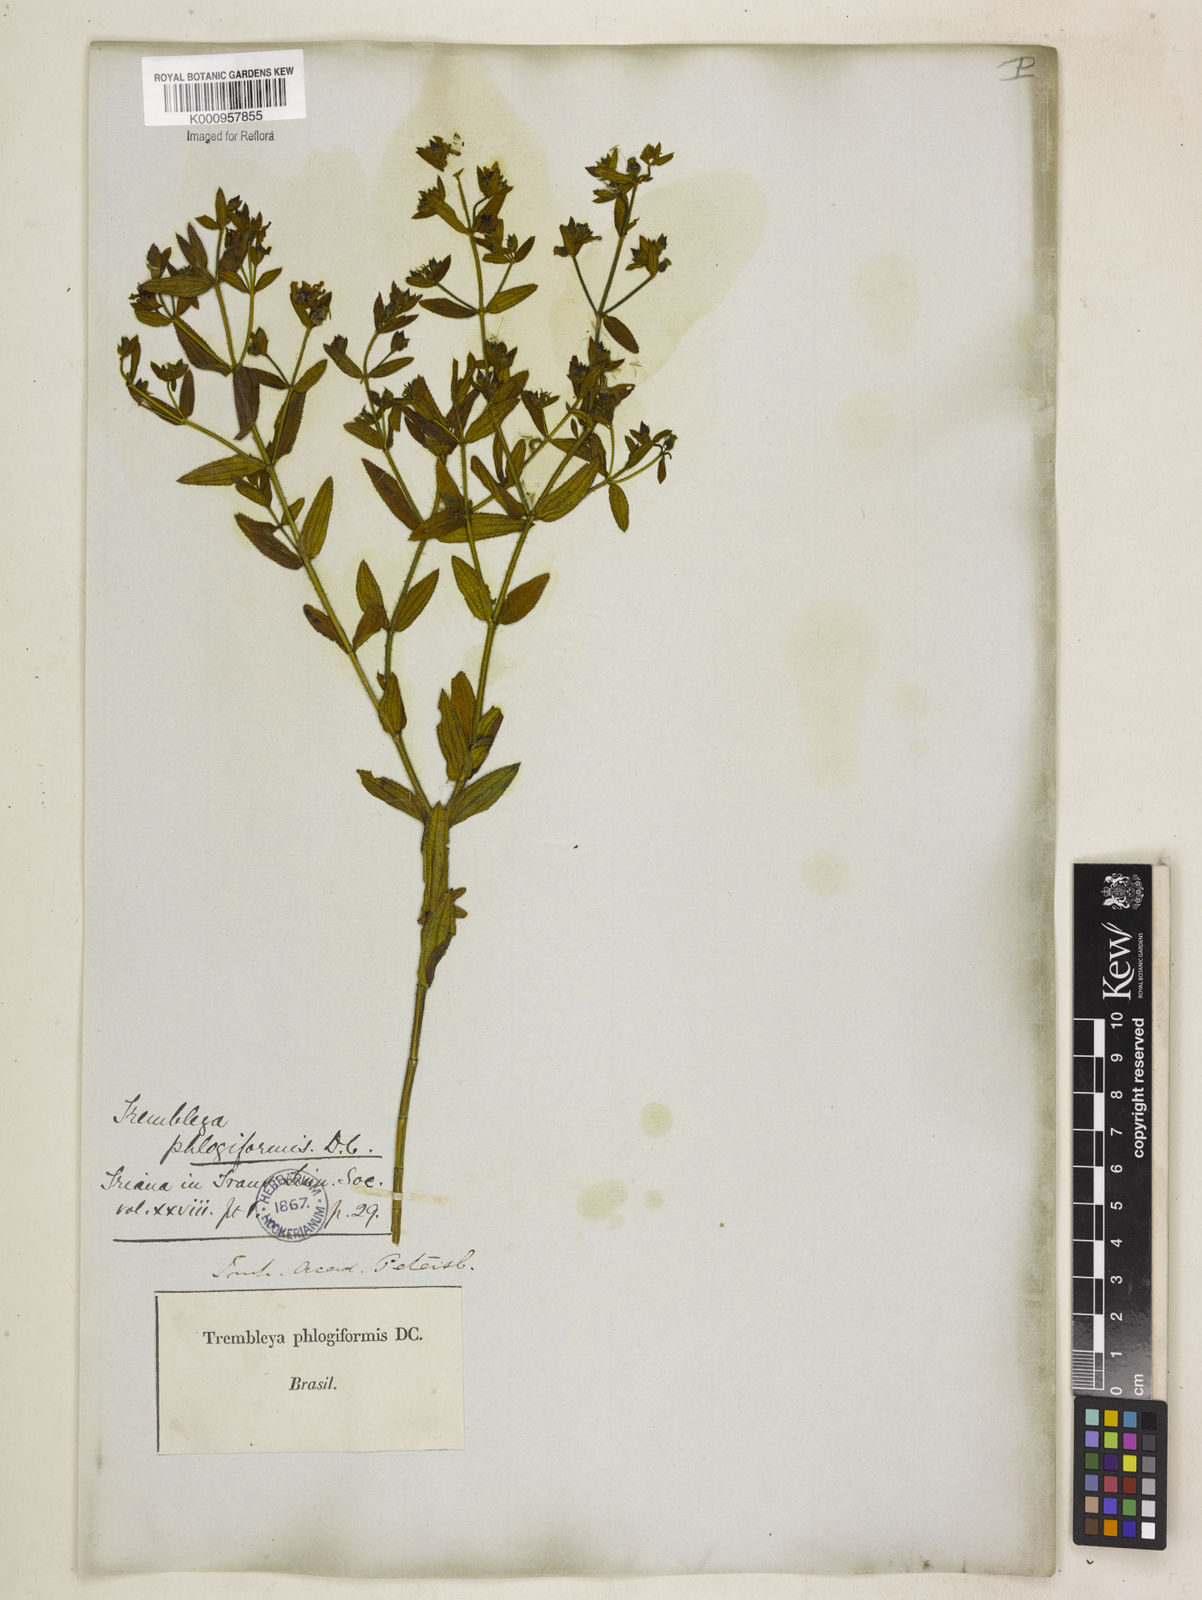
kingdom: Plantae
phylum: Tracheophyta
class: Magnoliopsida
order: Myrtales
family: Melastomataceae
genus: Microlicia
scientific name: Microlicia phlogiformis
